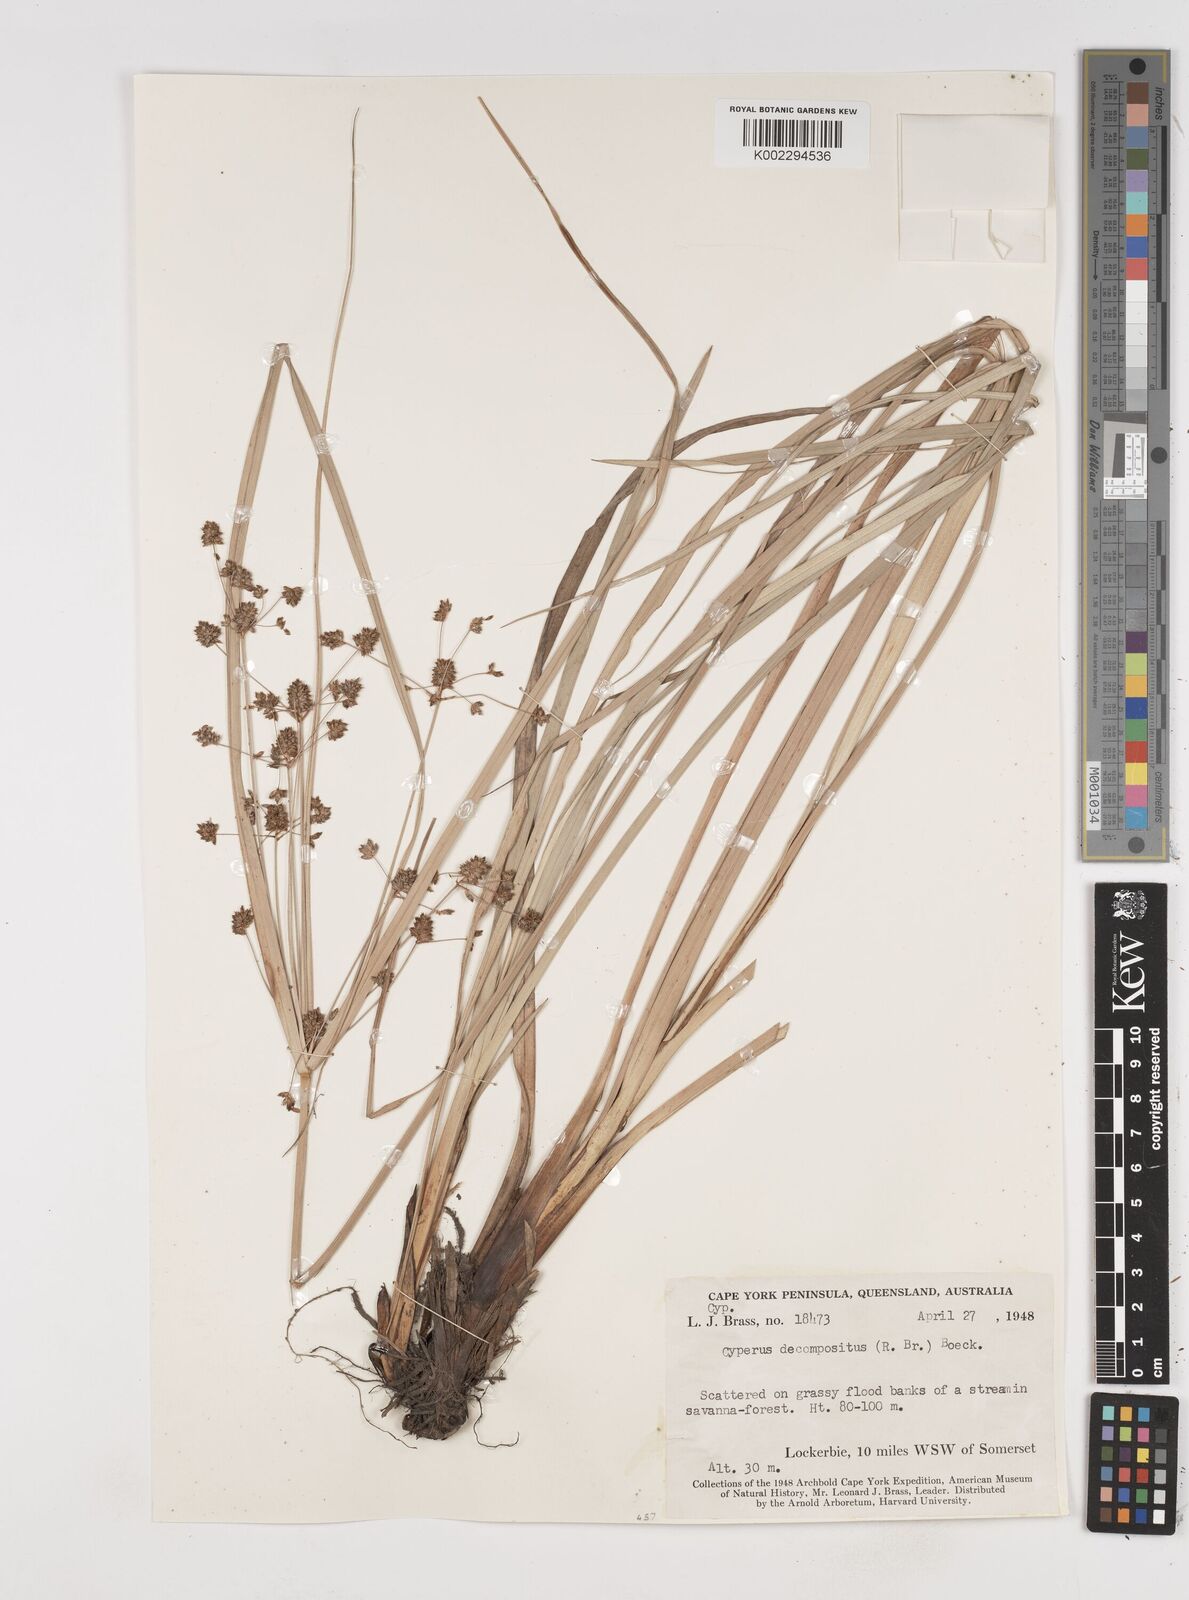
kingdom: Plantae
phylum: Tracheophyta
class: Liliopsida
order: Poales
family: Cyperaceae
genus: Cyperus
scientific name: Cyperus decompositus
